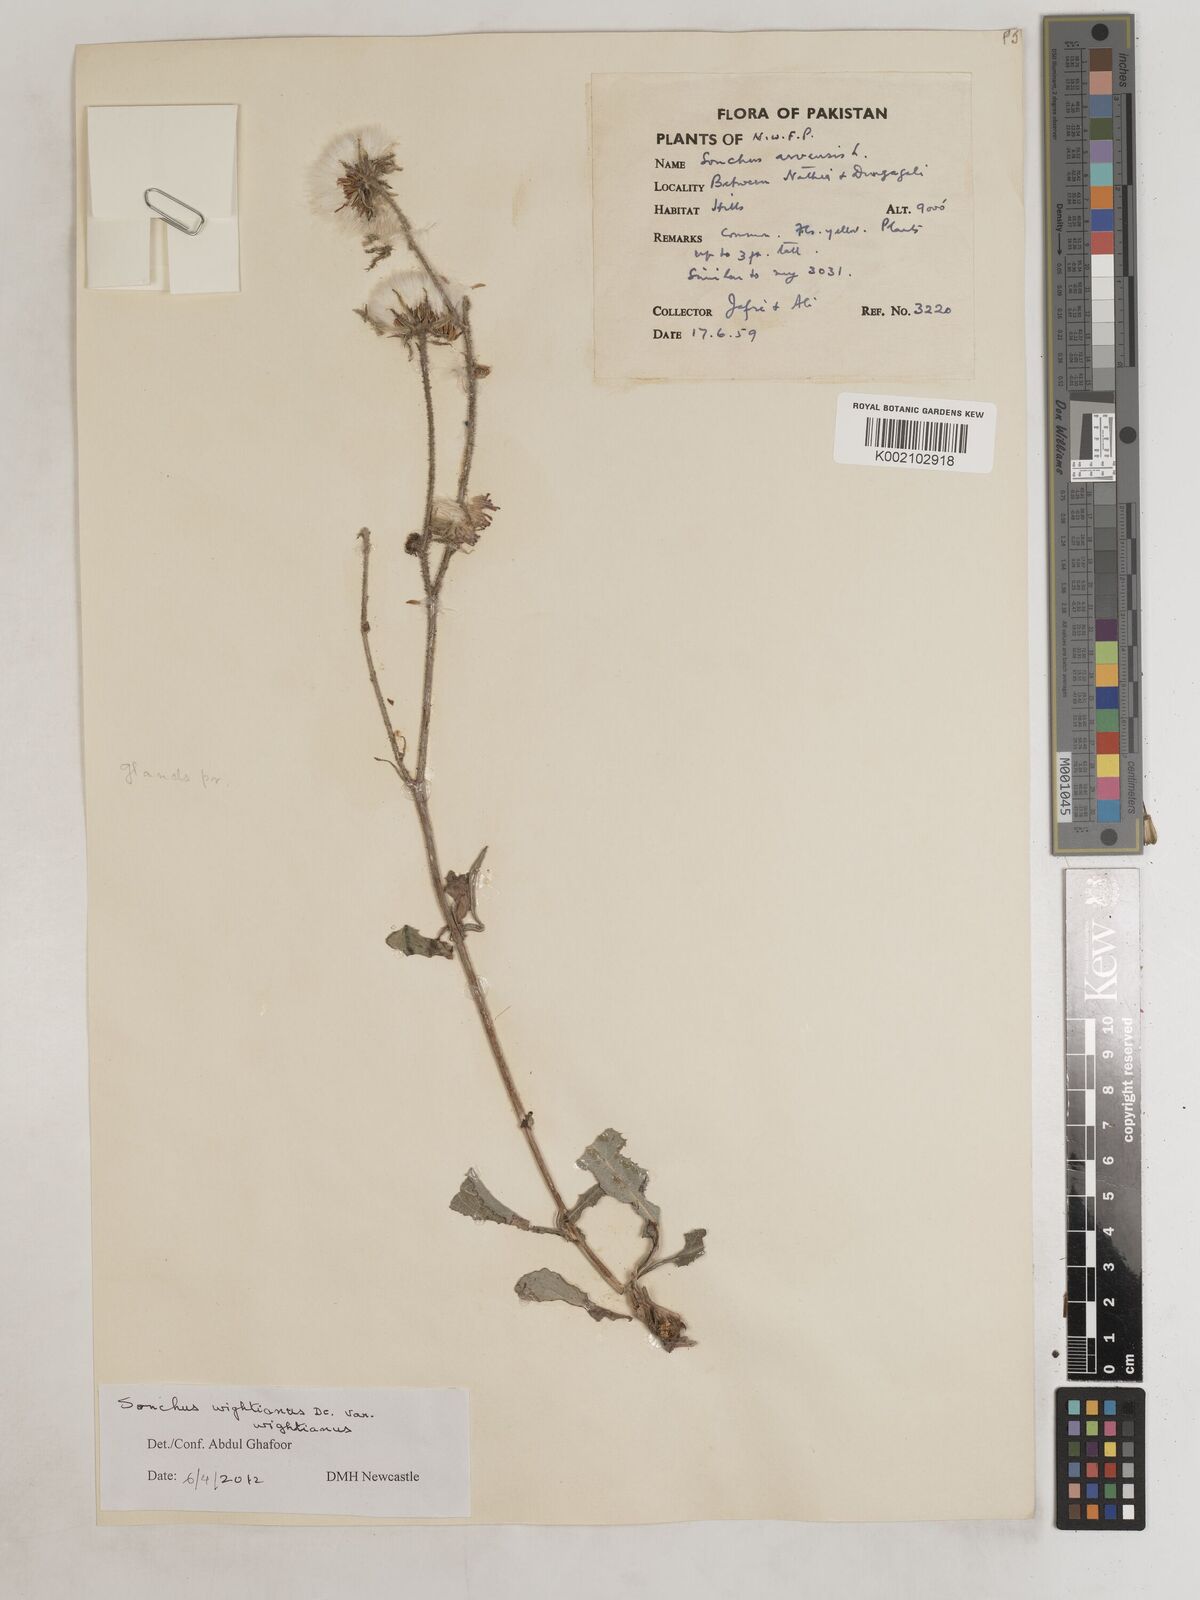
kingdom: Plantae
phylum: Tracheophyta
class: Magnoliopsida
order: Asterales
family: Asteraceae
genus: Sonchus
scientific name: Sonchus arvensis
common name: Perennial sow-thistle
